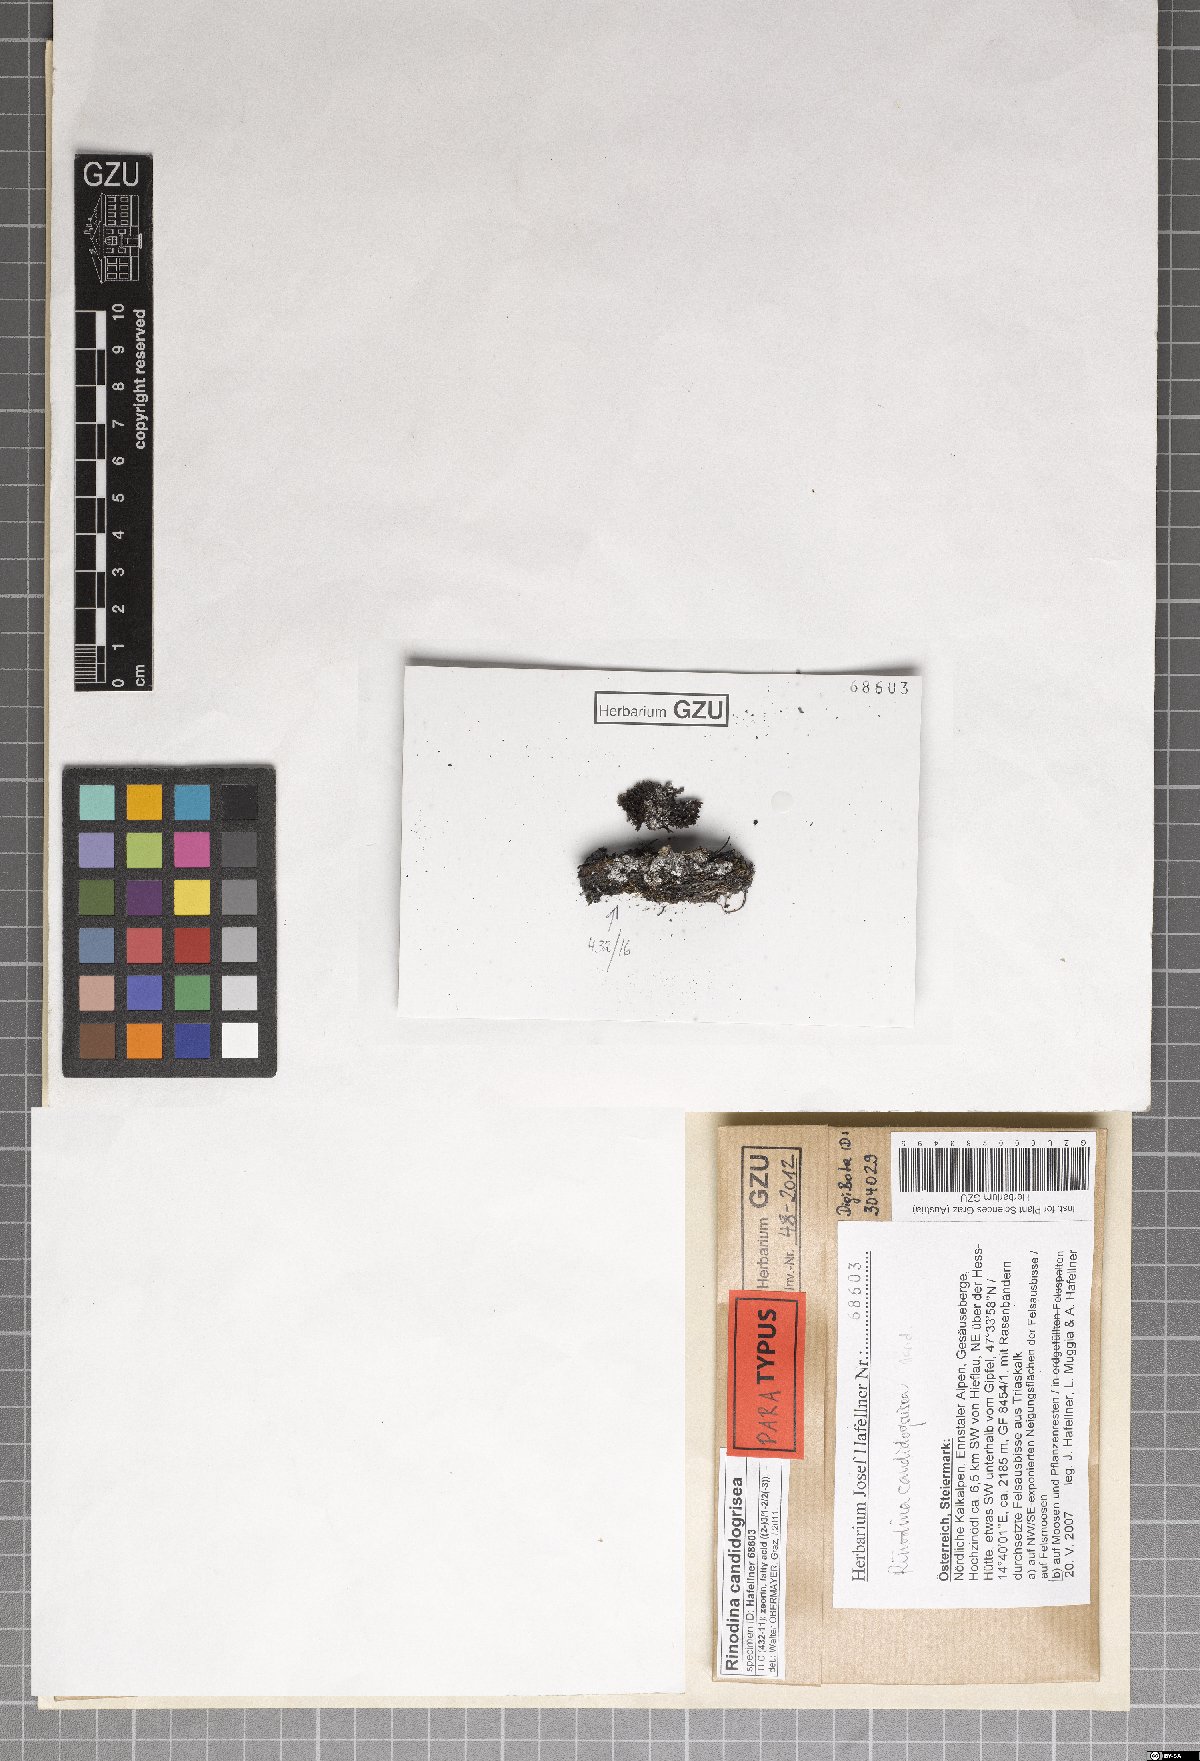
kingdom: Fungi
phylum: Ascomycota
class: Lecanoromycetes
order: Caliciales
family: Physciaceae
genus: Kudratovia
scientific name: Kudratovia candidogrisea
